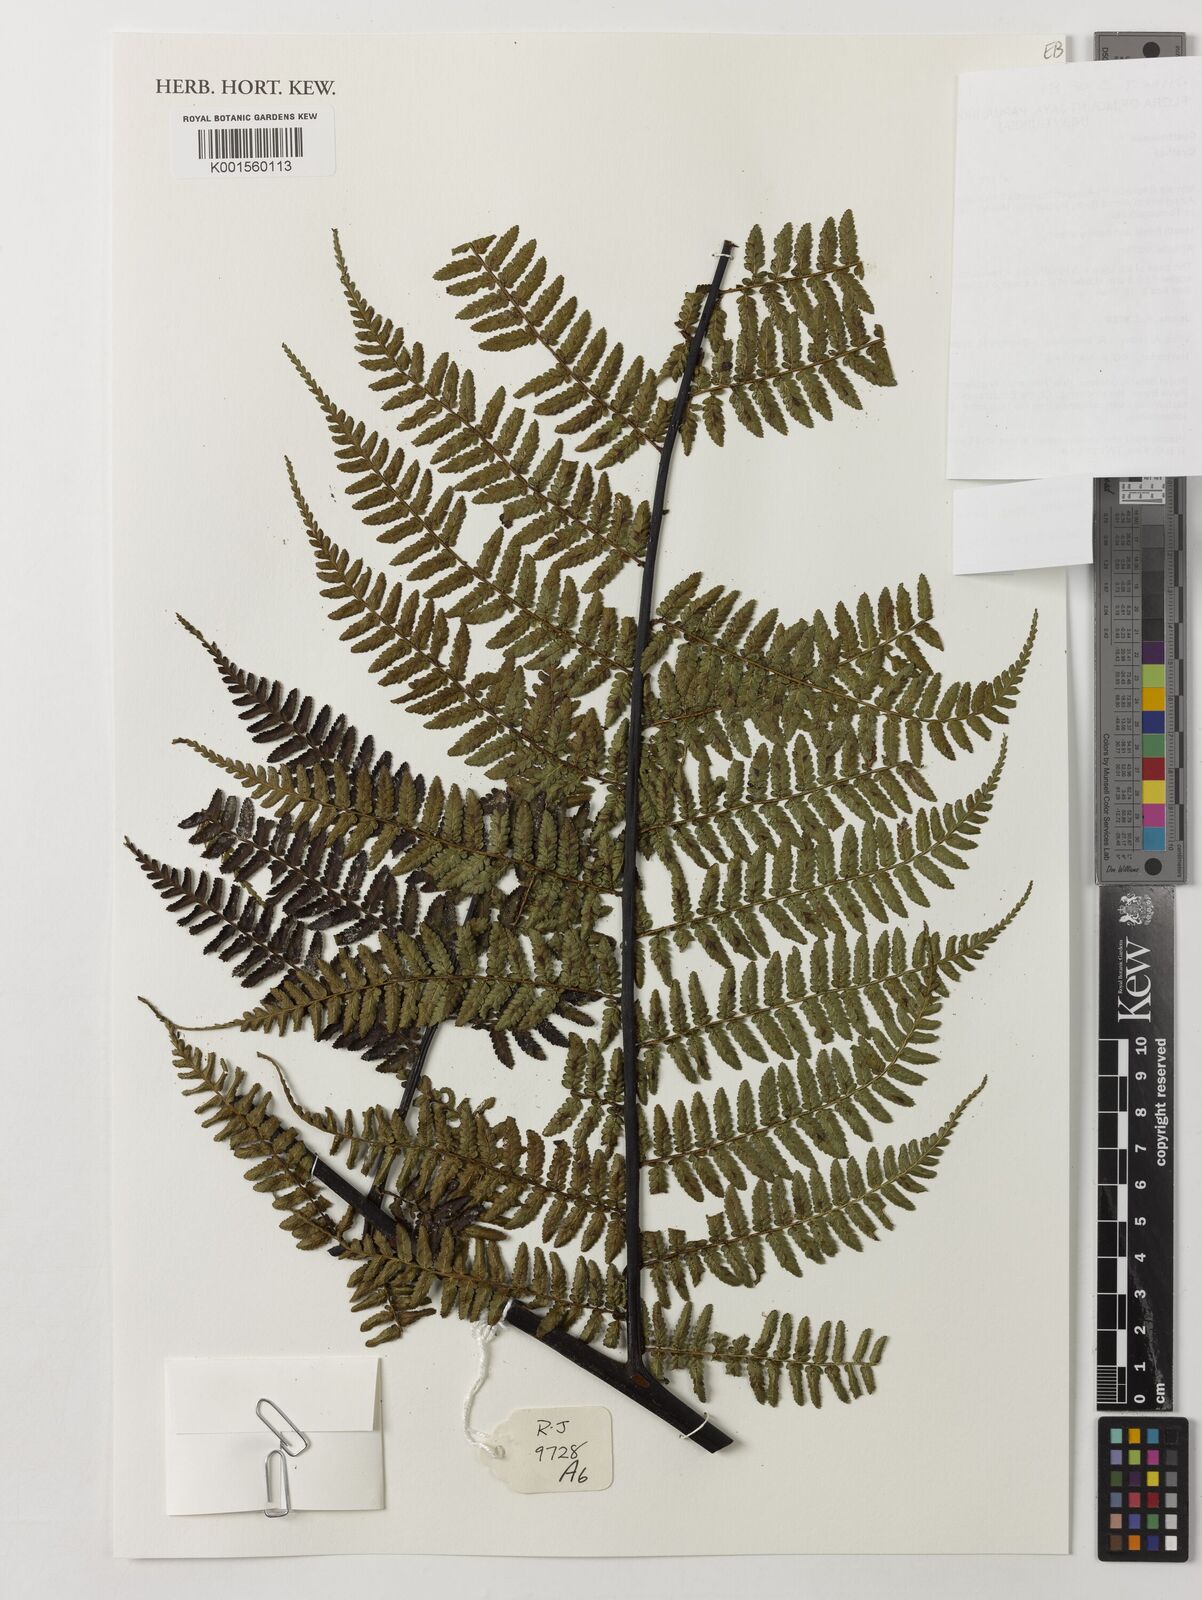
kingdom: Plantae
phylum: Tracheophyta
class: Polypodiopsida
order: Cyatheales
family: Cyatheaceae
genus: Gymnosphaera
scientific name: Gymnosphaera hornei
